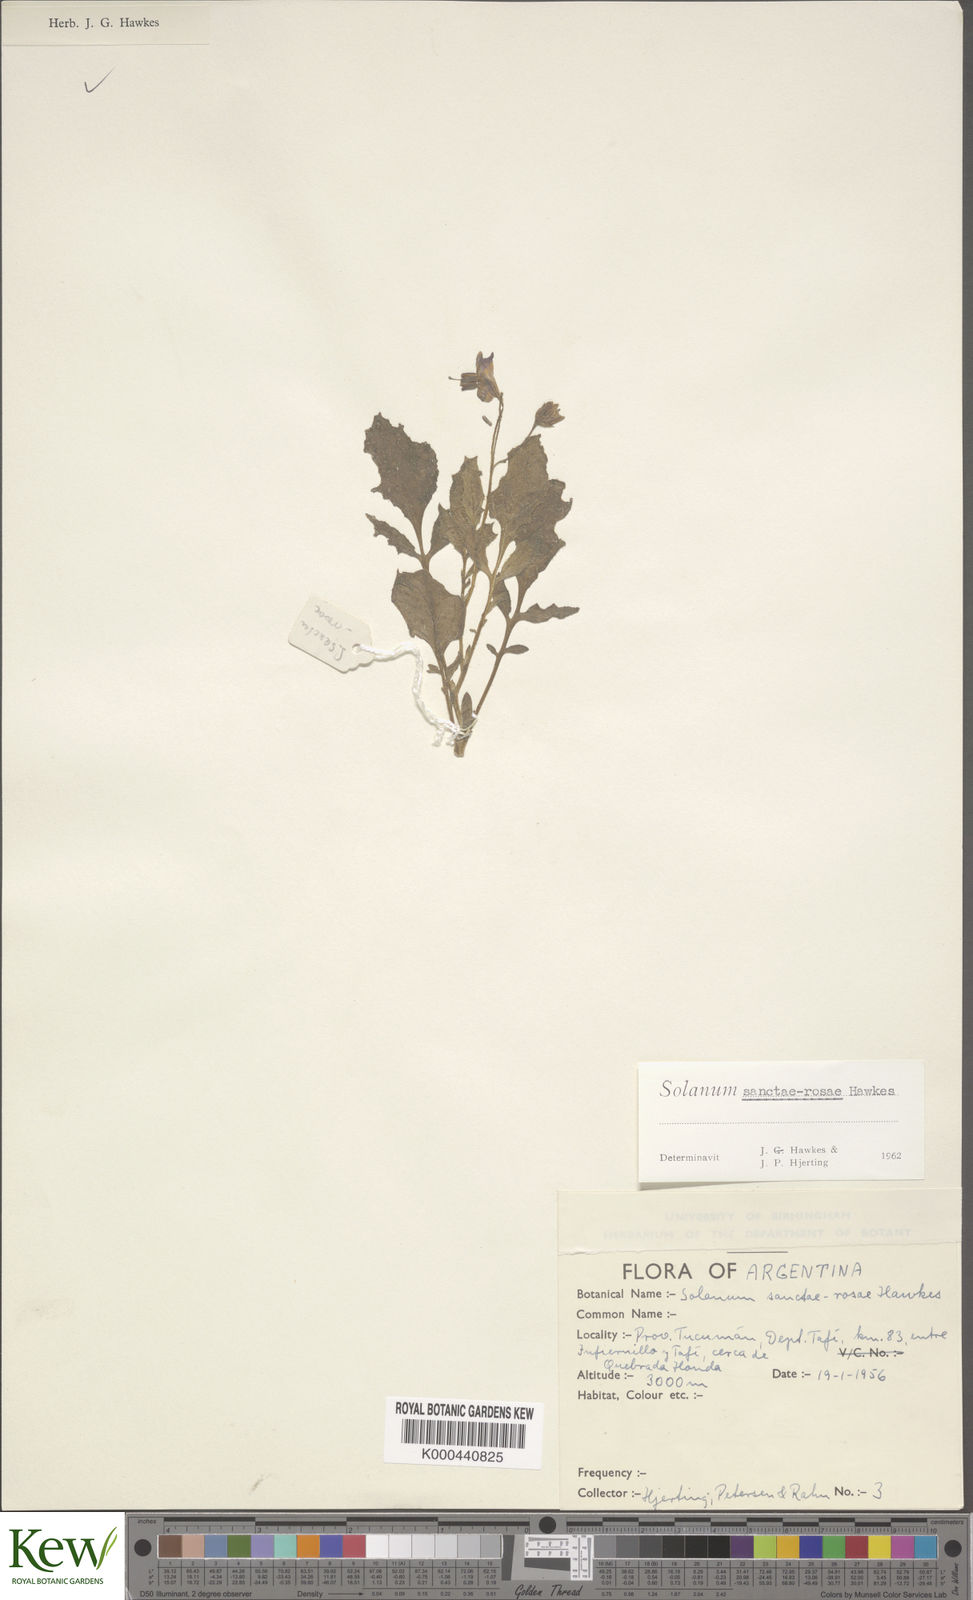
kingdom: Plantae
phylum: Tracheophyta
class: Magnoliopsida
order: Solanales
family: Solanaceae
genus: Solanum
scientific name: Solanum boliviense
